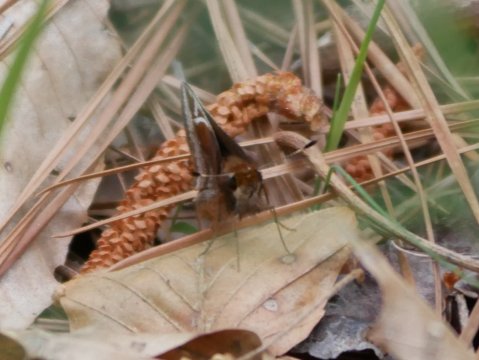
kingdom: Animalia
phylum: Arthropoda
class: Insecta
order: Lepidoptera
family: Hesperiidae
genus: Lon
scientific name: Lon zabulon
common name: Zabulon Skipper
